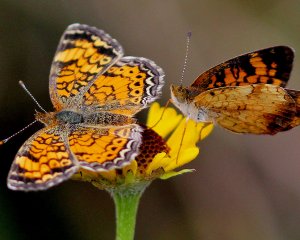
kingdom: Animalia
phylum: Arthropoda
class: Insecta
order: Lepidoptera
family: Nymphalidae
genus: Phyciodes
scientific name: Phyciodes tharos
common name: Pearl Crescent
